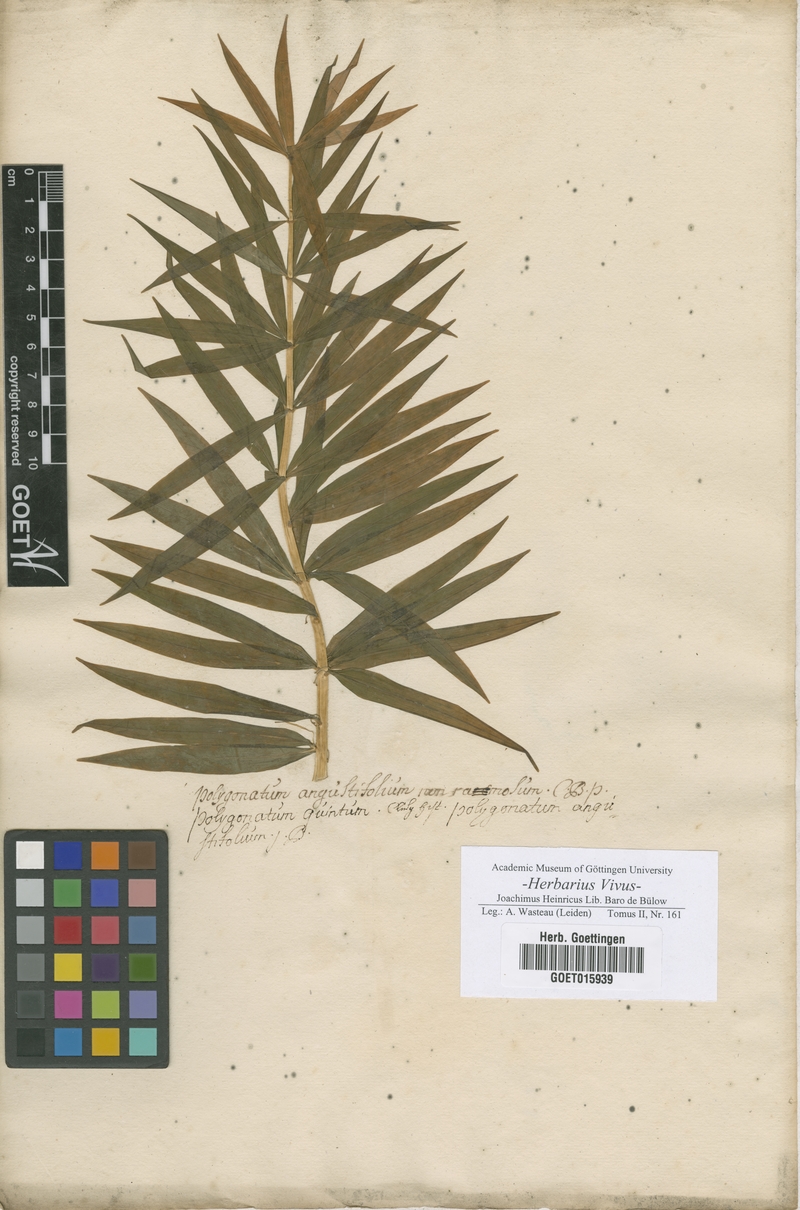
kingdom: Plantae
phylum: Tracheophyta
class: Liliopsida
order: Asparagales
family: Asparagaceae
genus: Polygonatum
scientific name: Polygonatum
